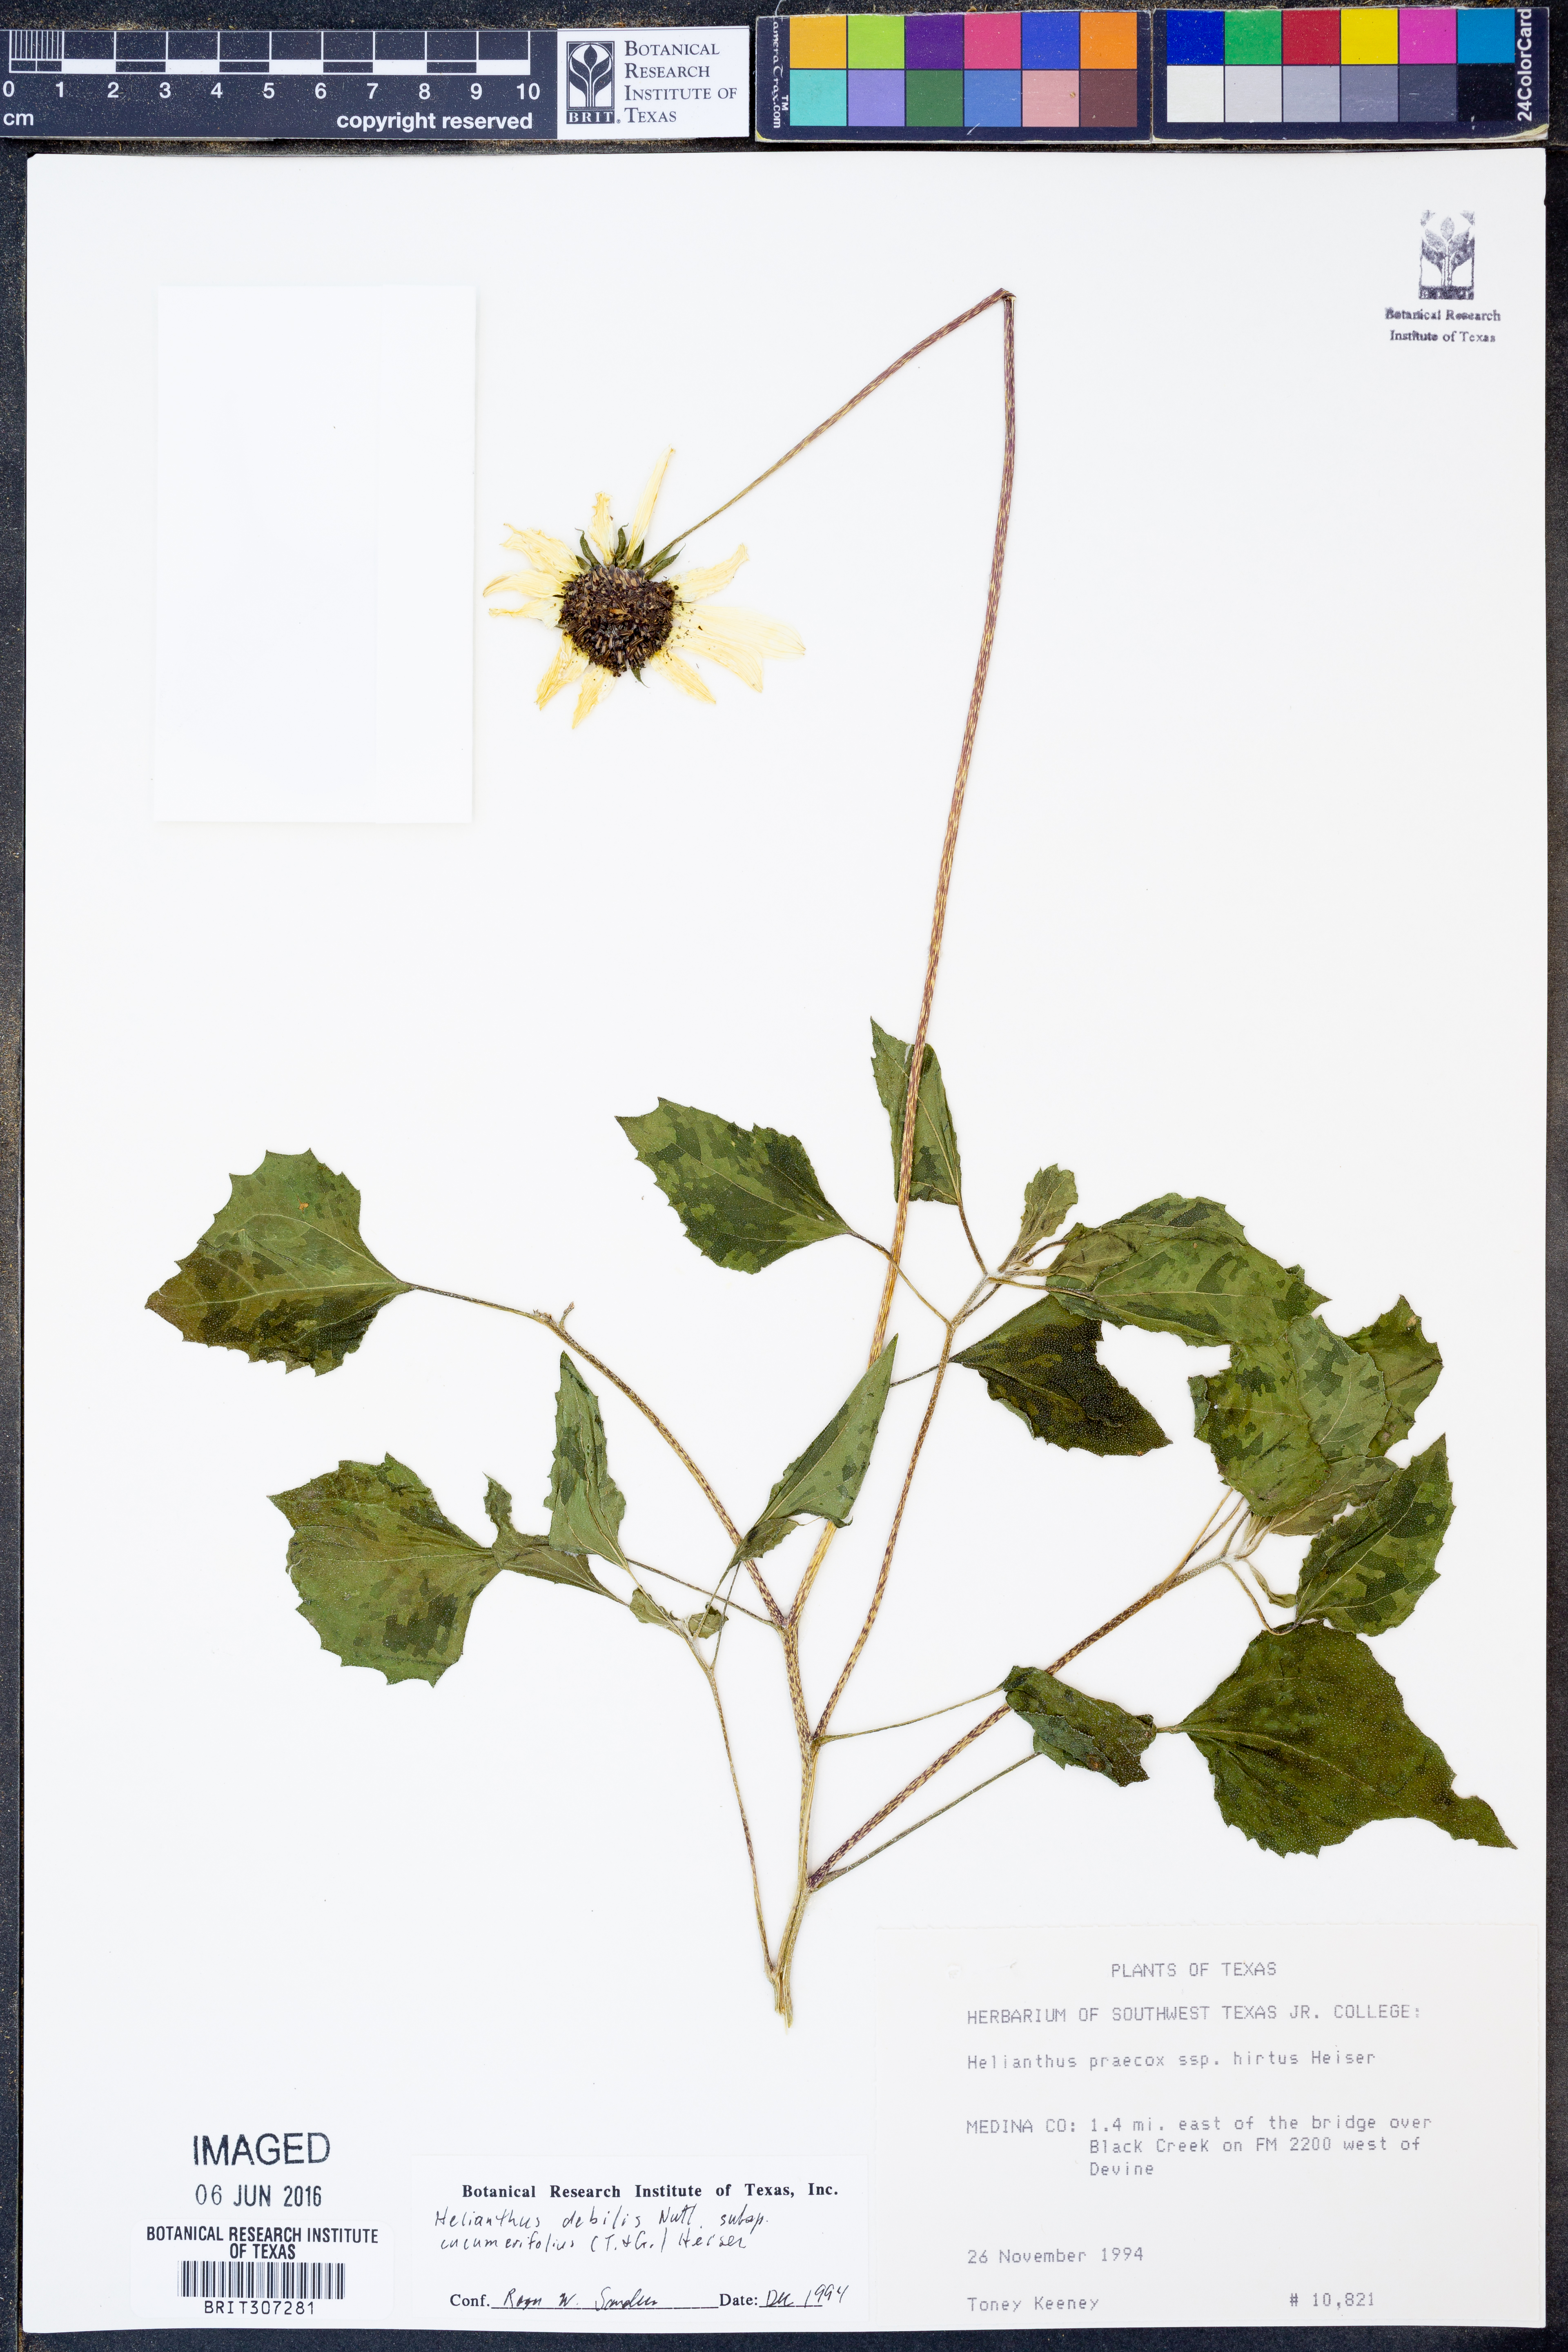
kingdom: Plantae
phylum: Tracheophyta
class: Magnoliopsida
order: Asterales
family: Asteraceae
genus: Helianthus
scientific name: Helianthus debilis
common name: Weak sunflower
